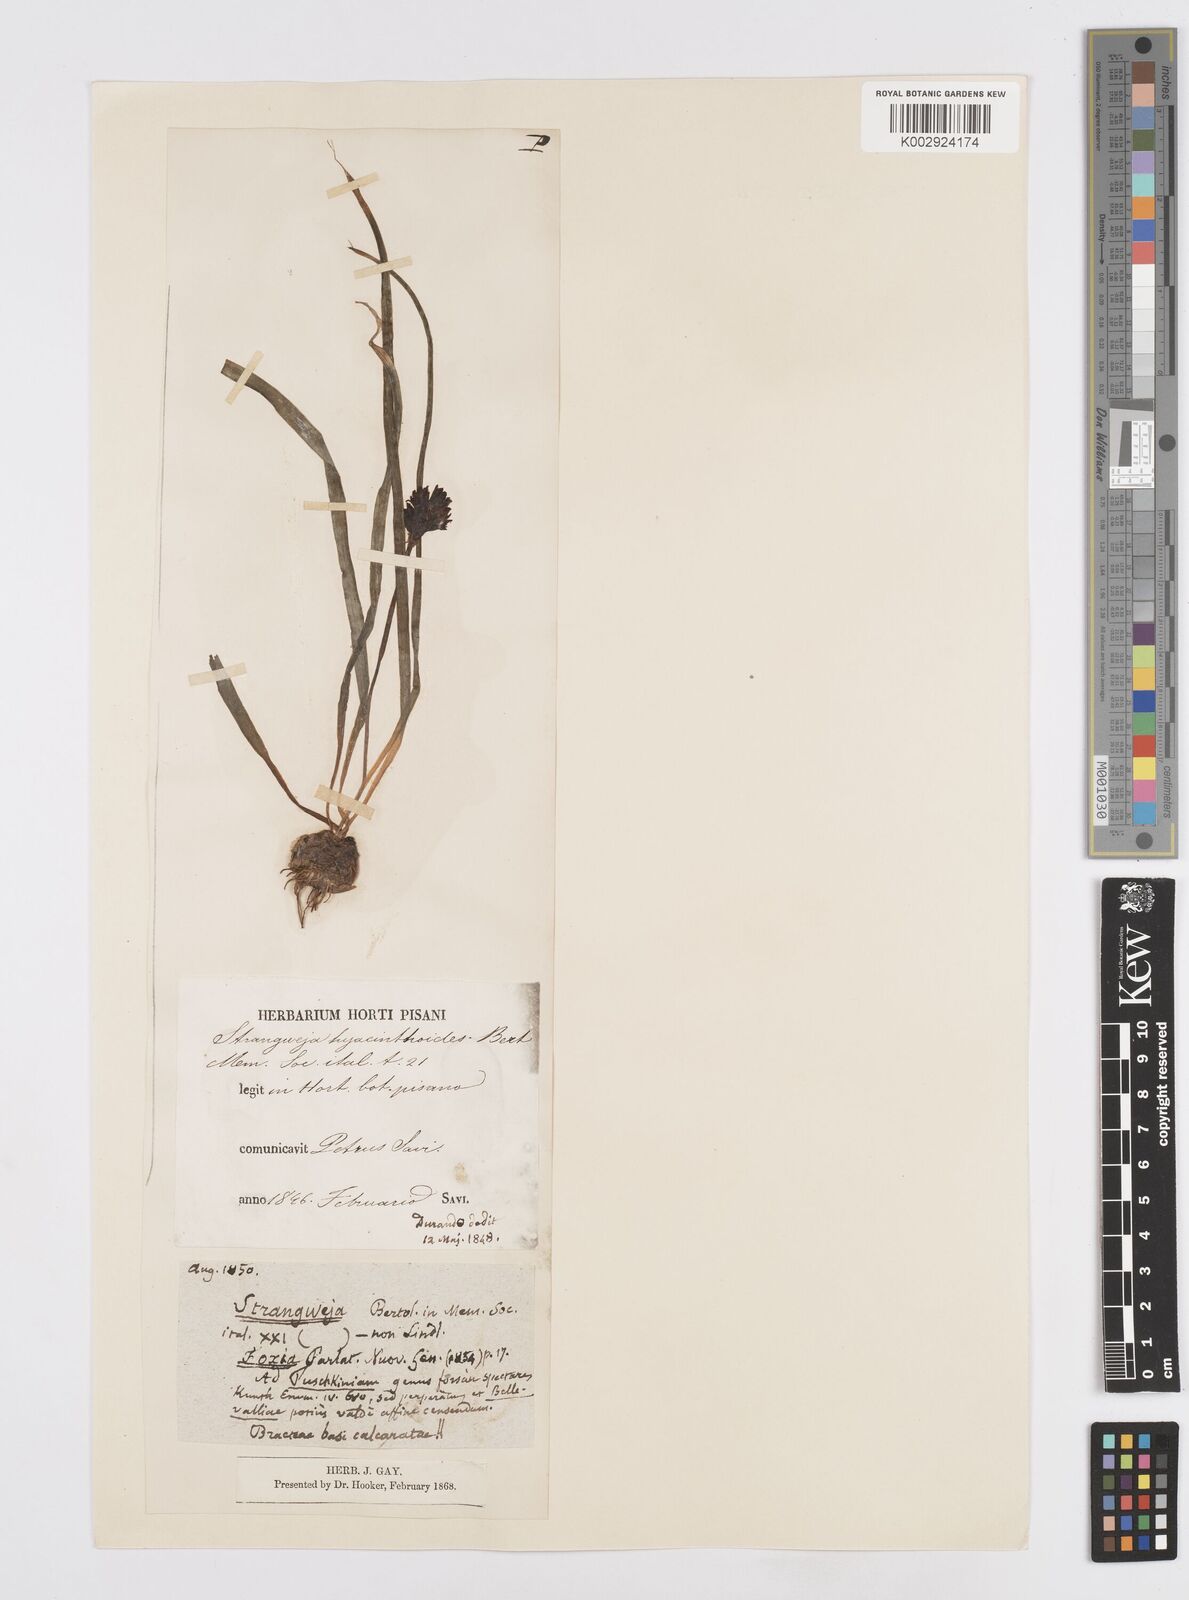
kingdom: Plantae
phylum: Tracheophyta
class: Liliopsida
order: Asparagales
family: Asparagaceae
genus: Bellevalia
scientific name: Bellevalia hyacinthoides
